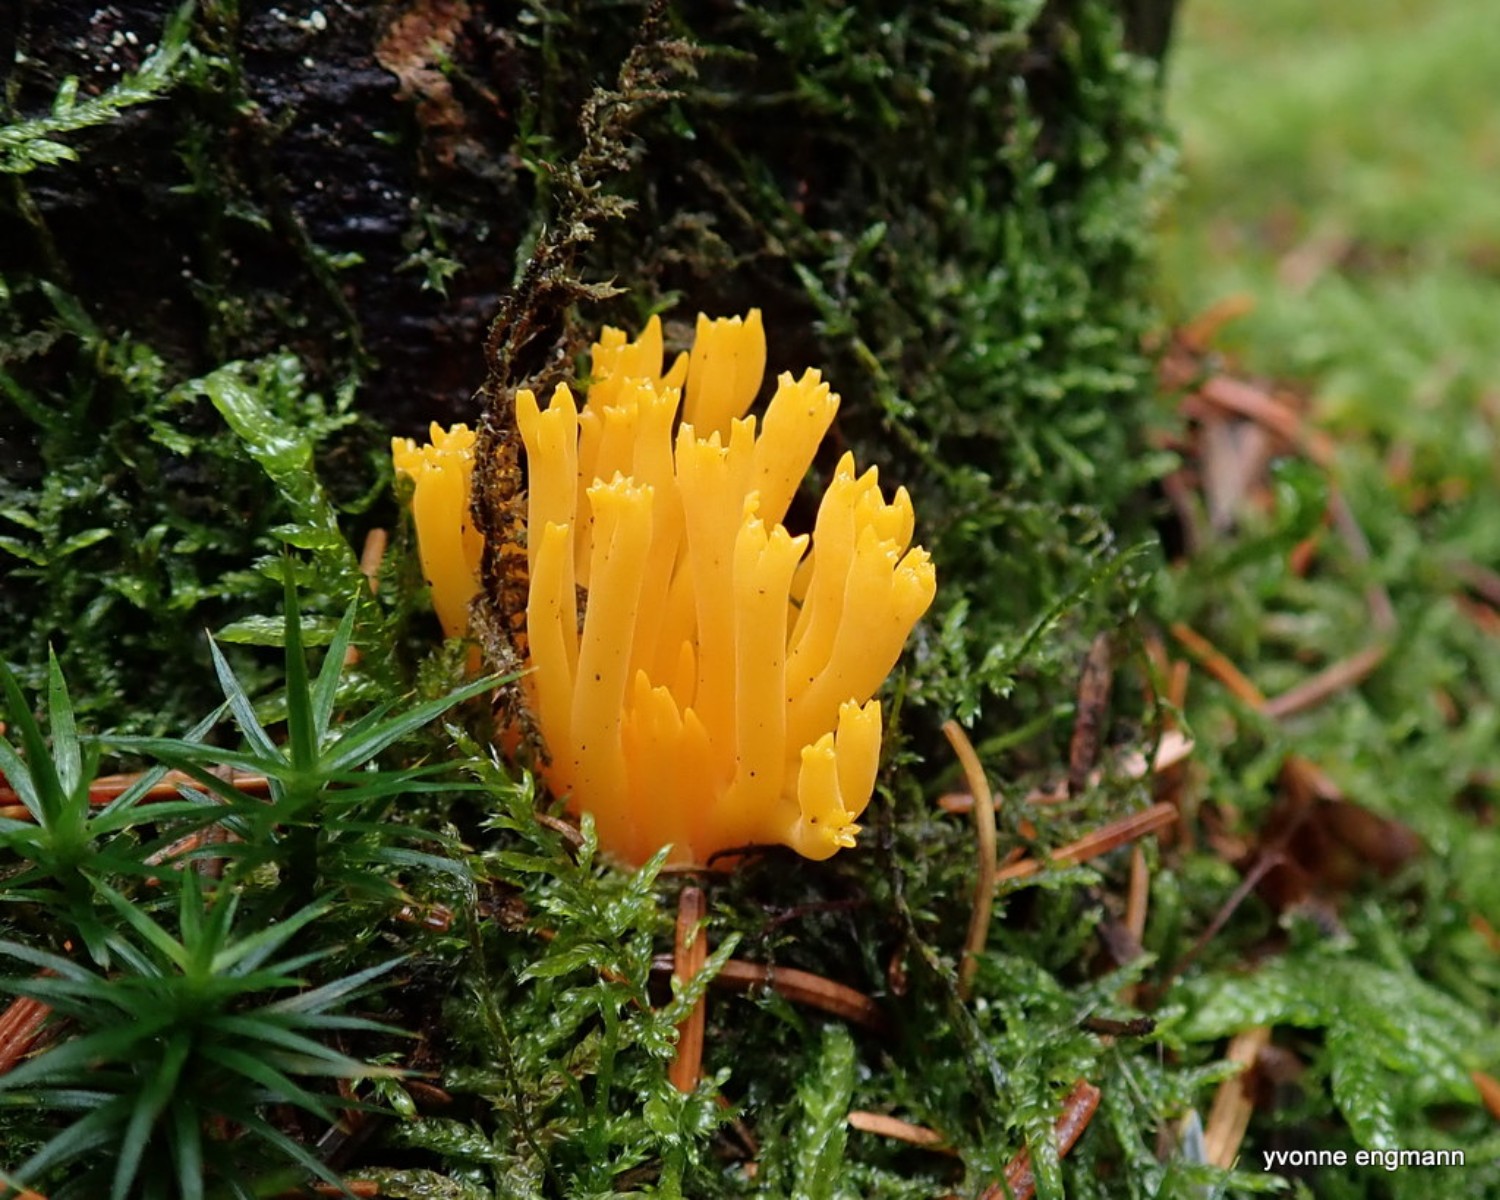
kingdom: Fungi
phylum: Basidiomycota
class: Dacrymycetes
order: Dacrymycetales
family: Dacrymycetaceae
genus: Calocera
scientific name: Calocera viscosa
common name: almindelig guldgaffel
